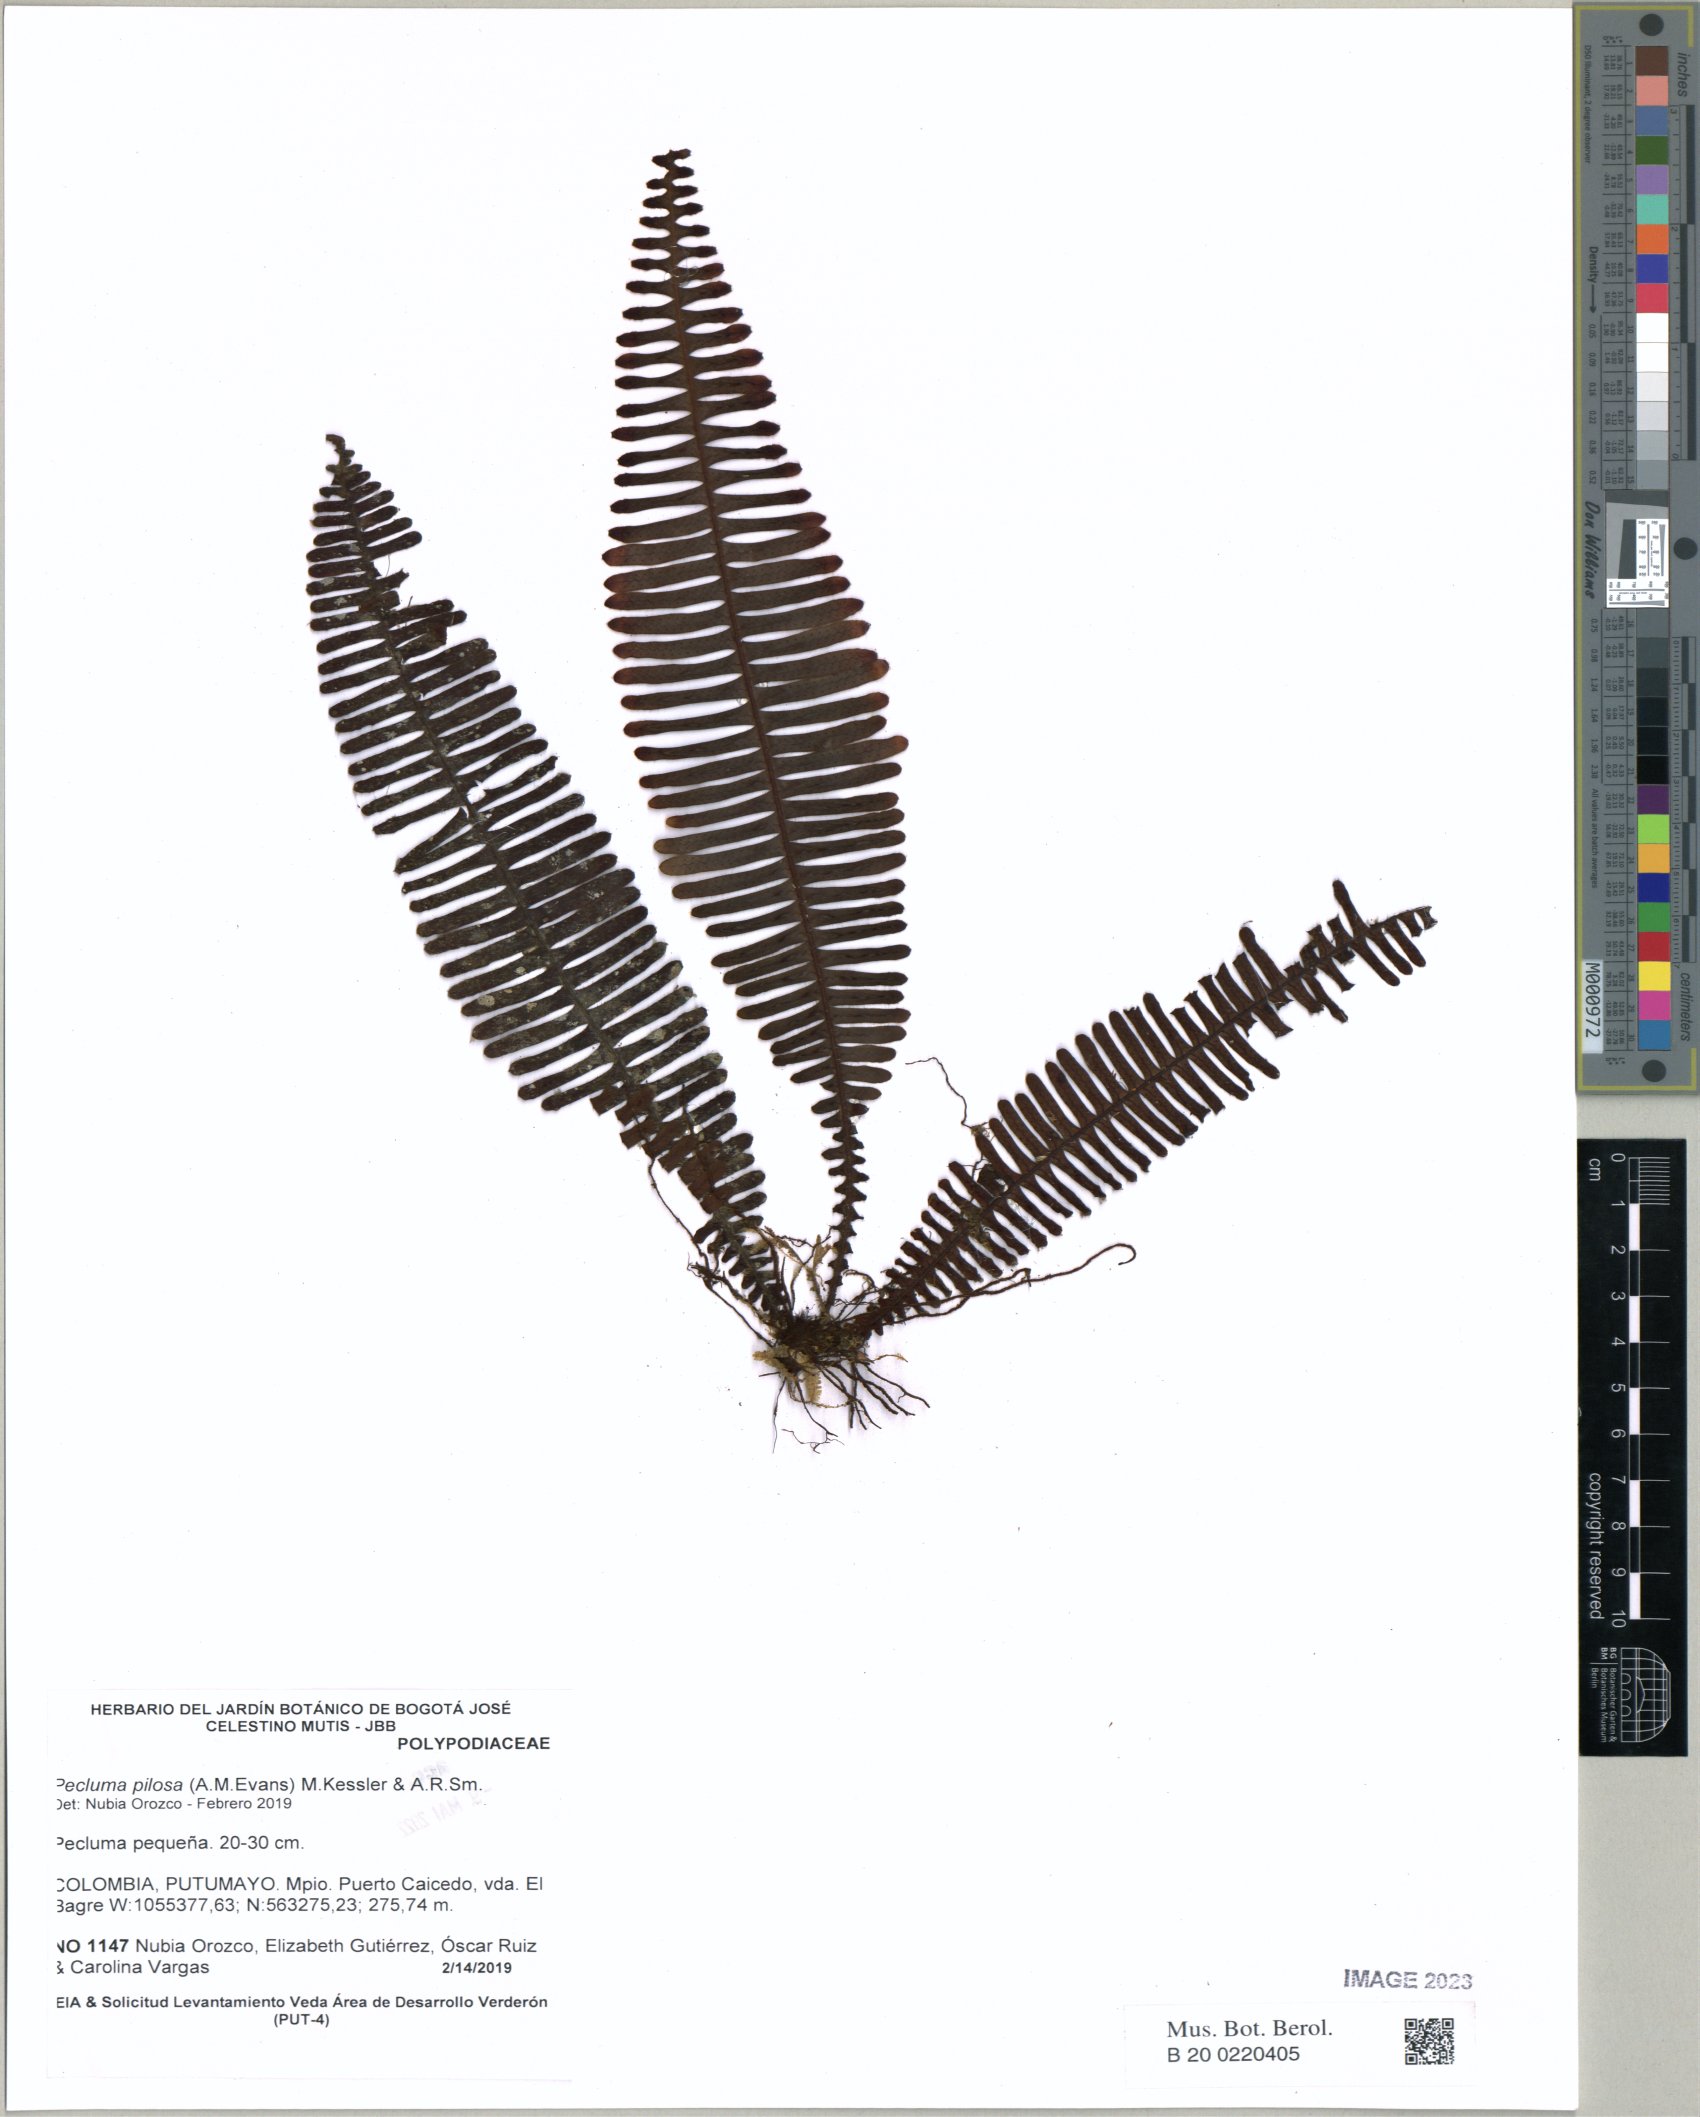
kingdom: Plantae
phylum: Tracheophyta
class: Polypodiopsida
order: Polypodiales
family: Polypodiaceae
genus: Pecluma
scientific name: Pecluma pilosa
